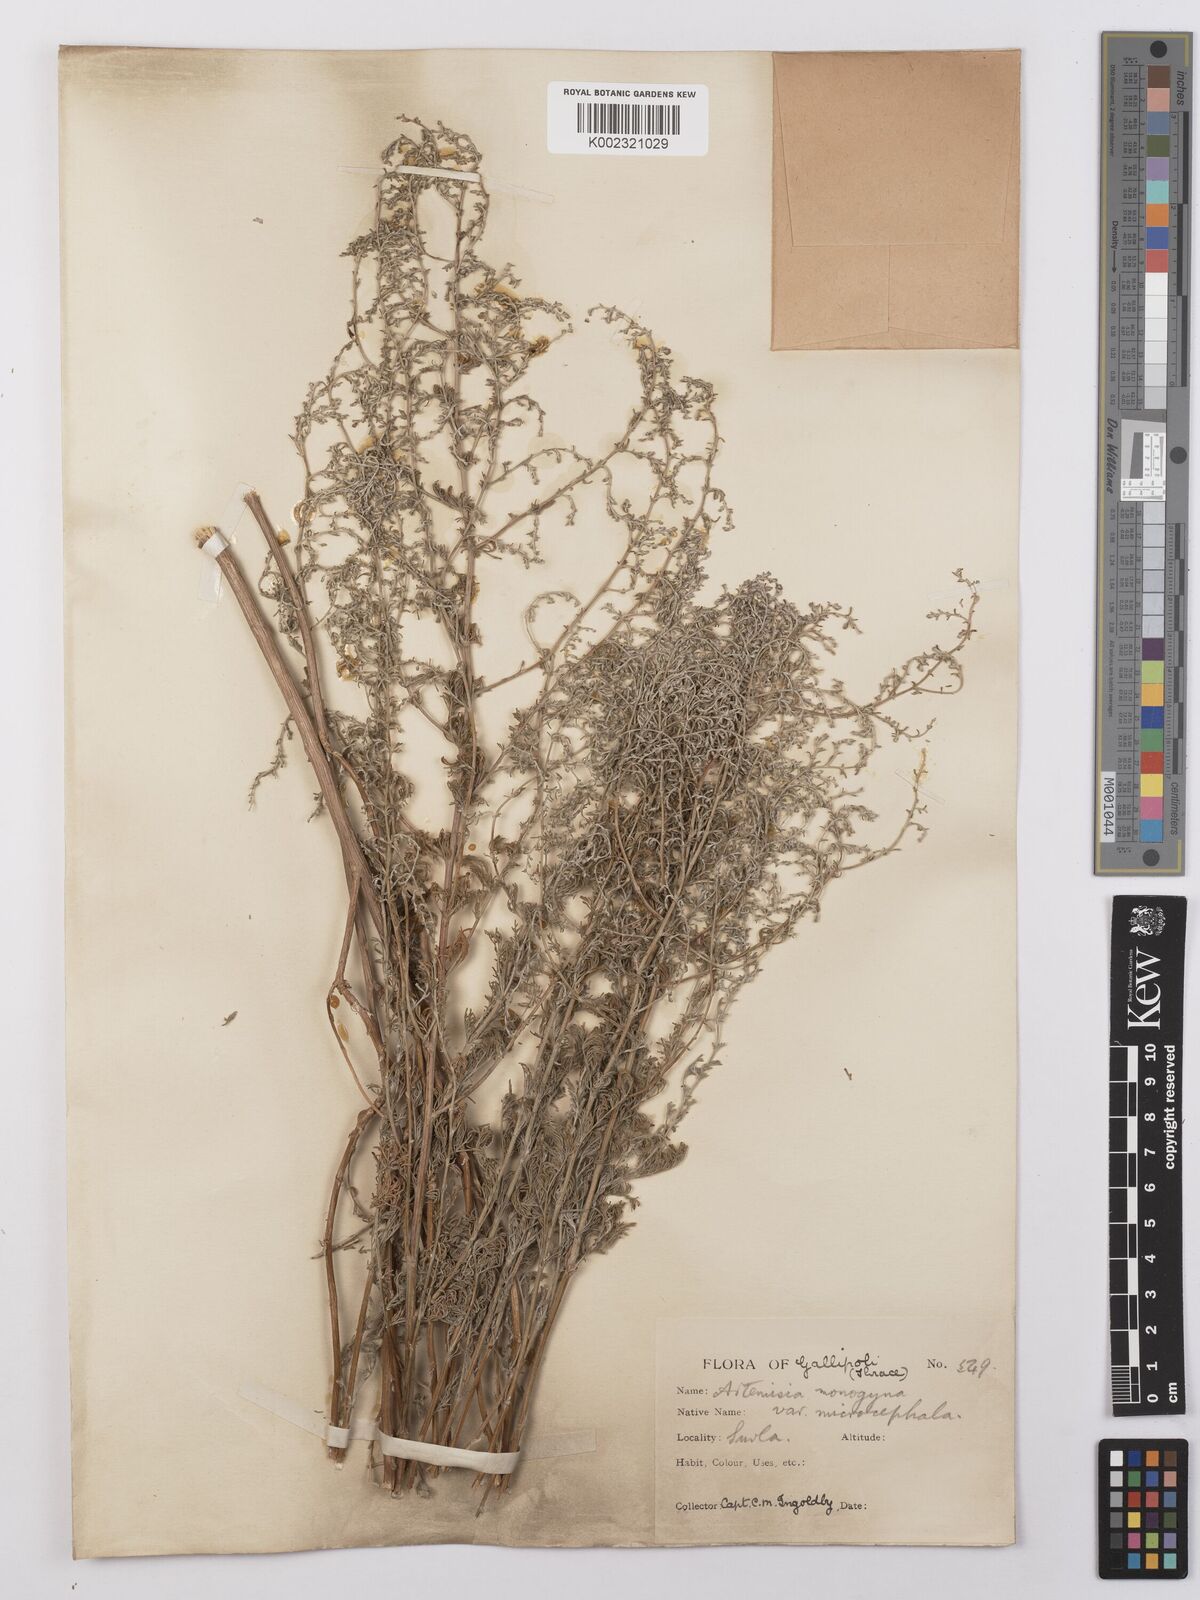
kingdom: Plantae
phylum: Tracheophyta
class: Magnoliopsida
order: Asterales
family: Asteraceae
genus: Artemisia
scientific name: Artemisia santonicum
